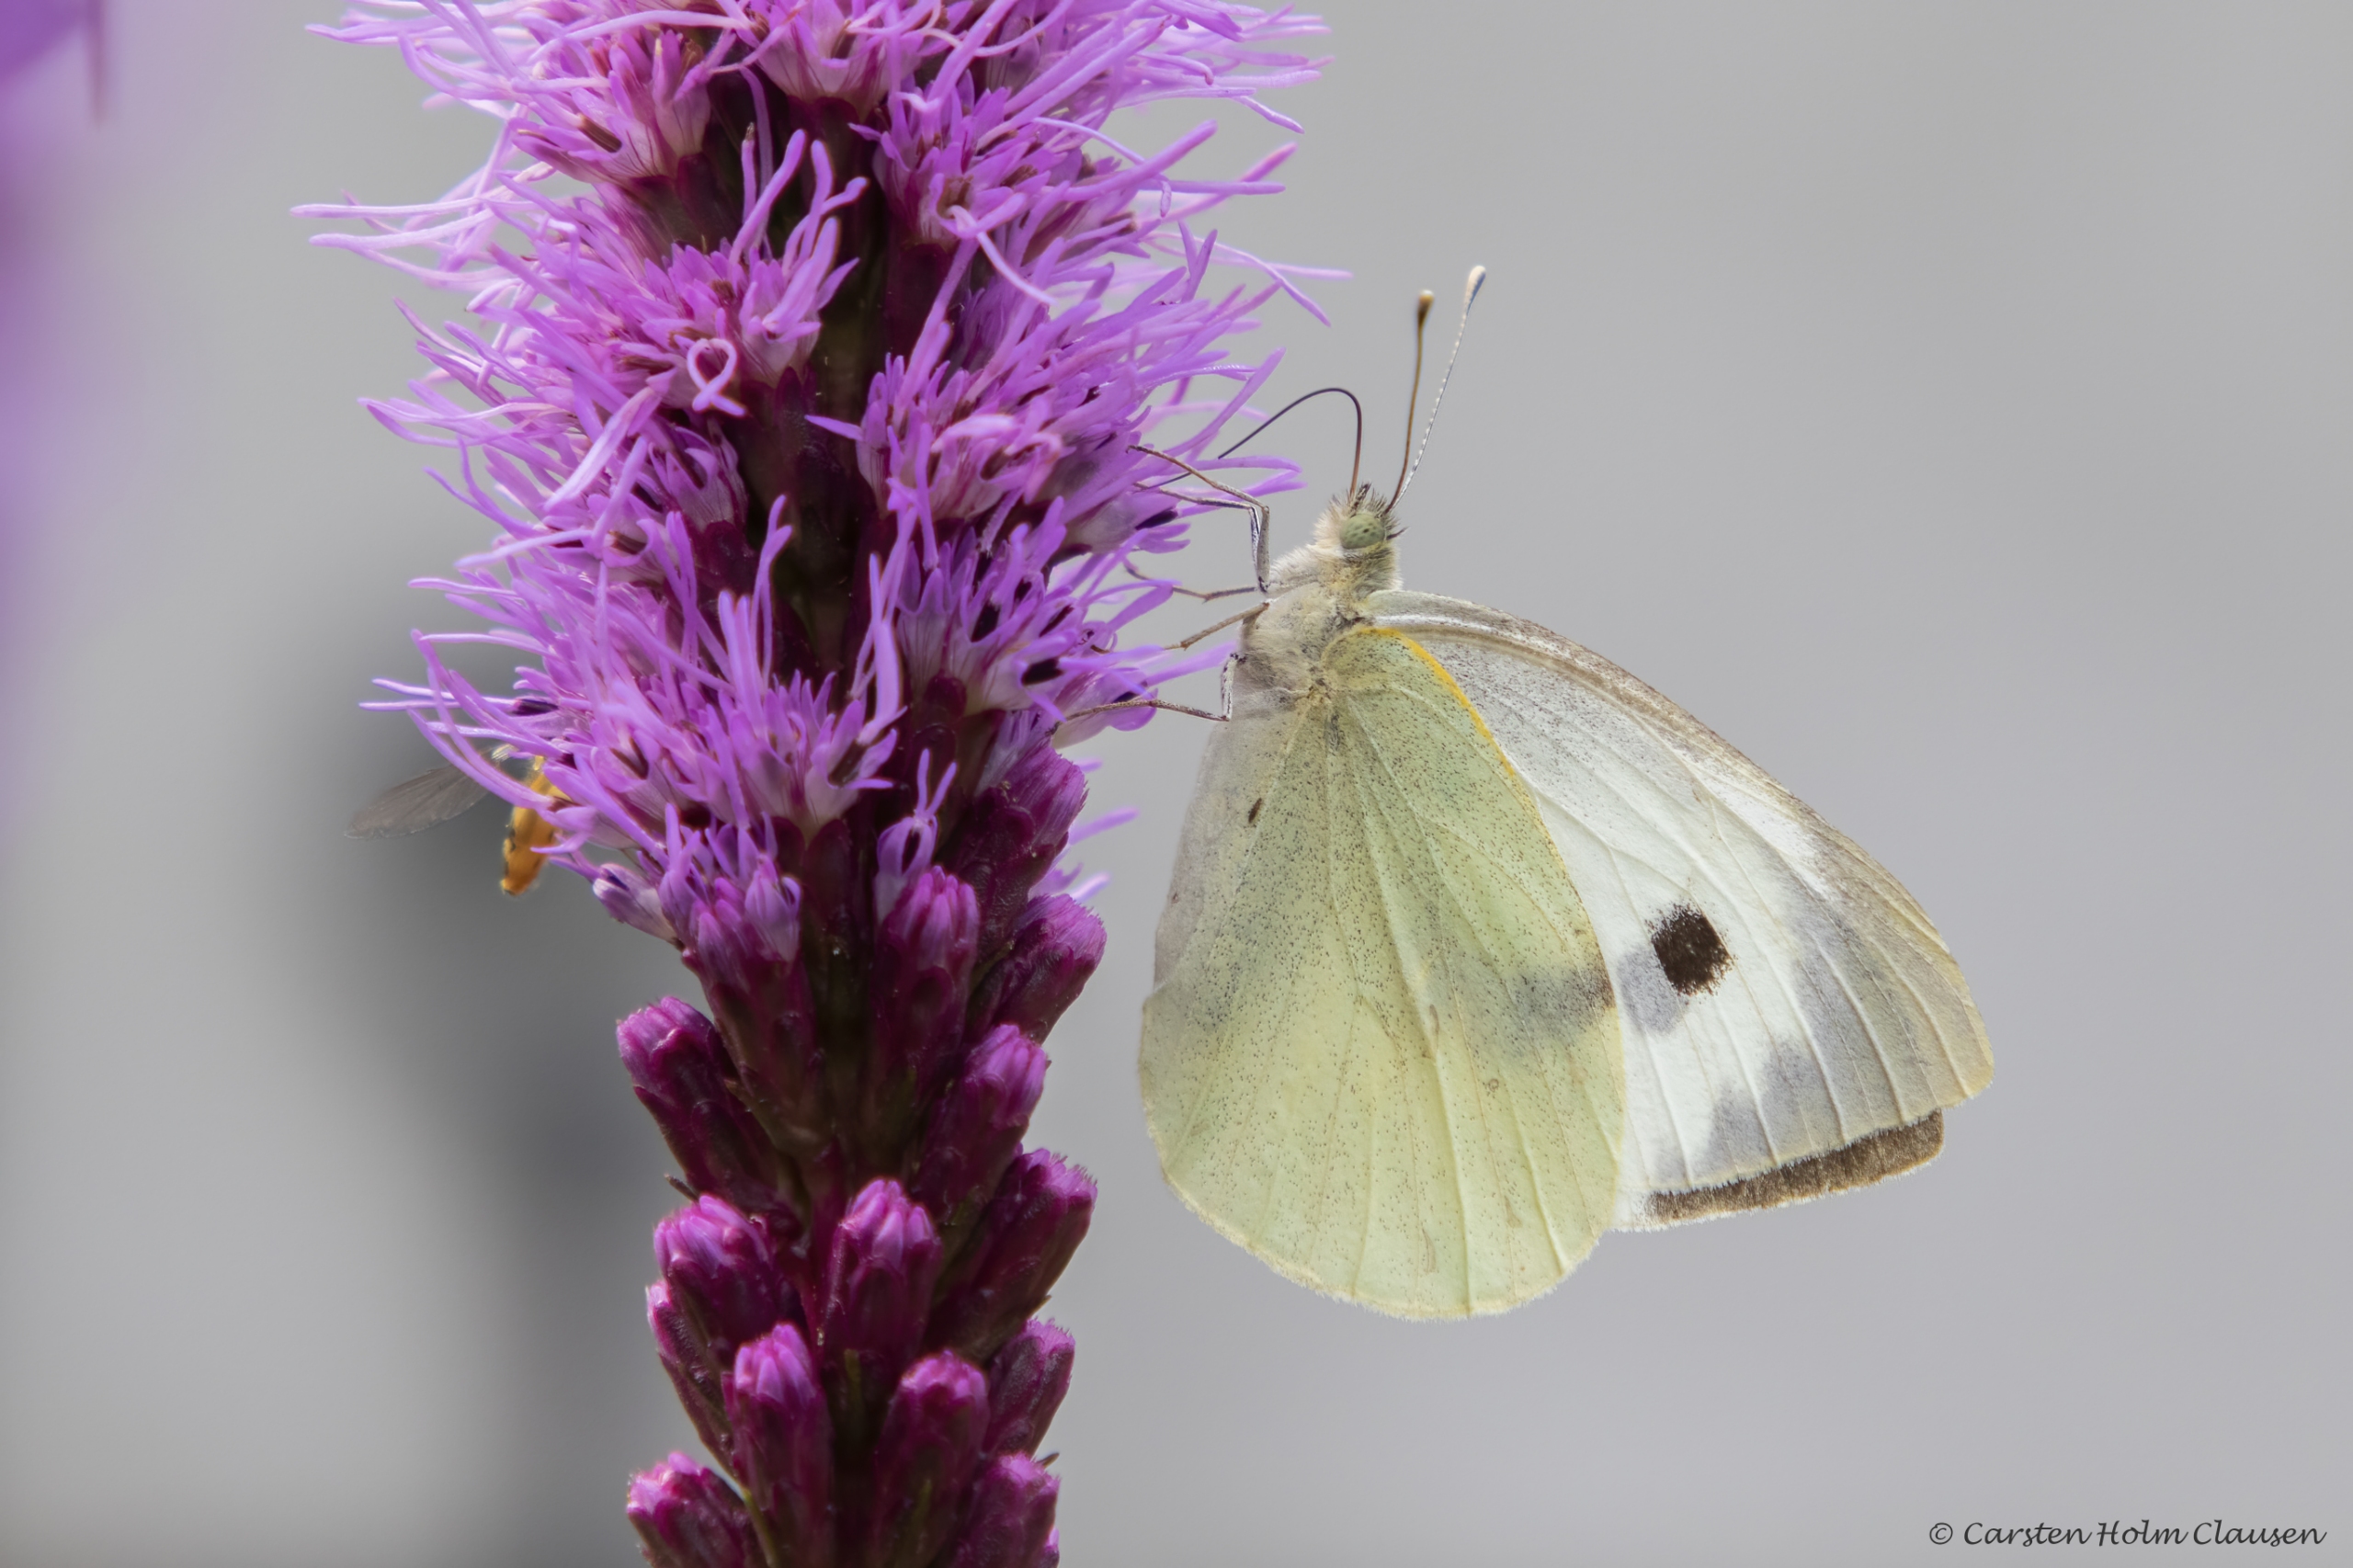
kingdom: Animalia
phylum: Arthropoda
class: Insecta
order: Lepidoptera
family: Pieridae
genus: Pieris
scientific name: Pieris brassicae
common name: Stor kålsommerfugl
